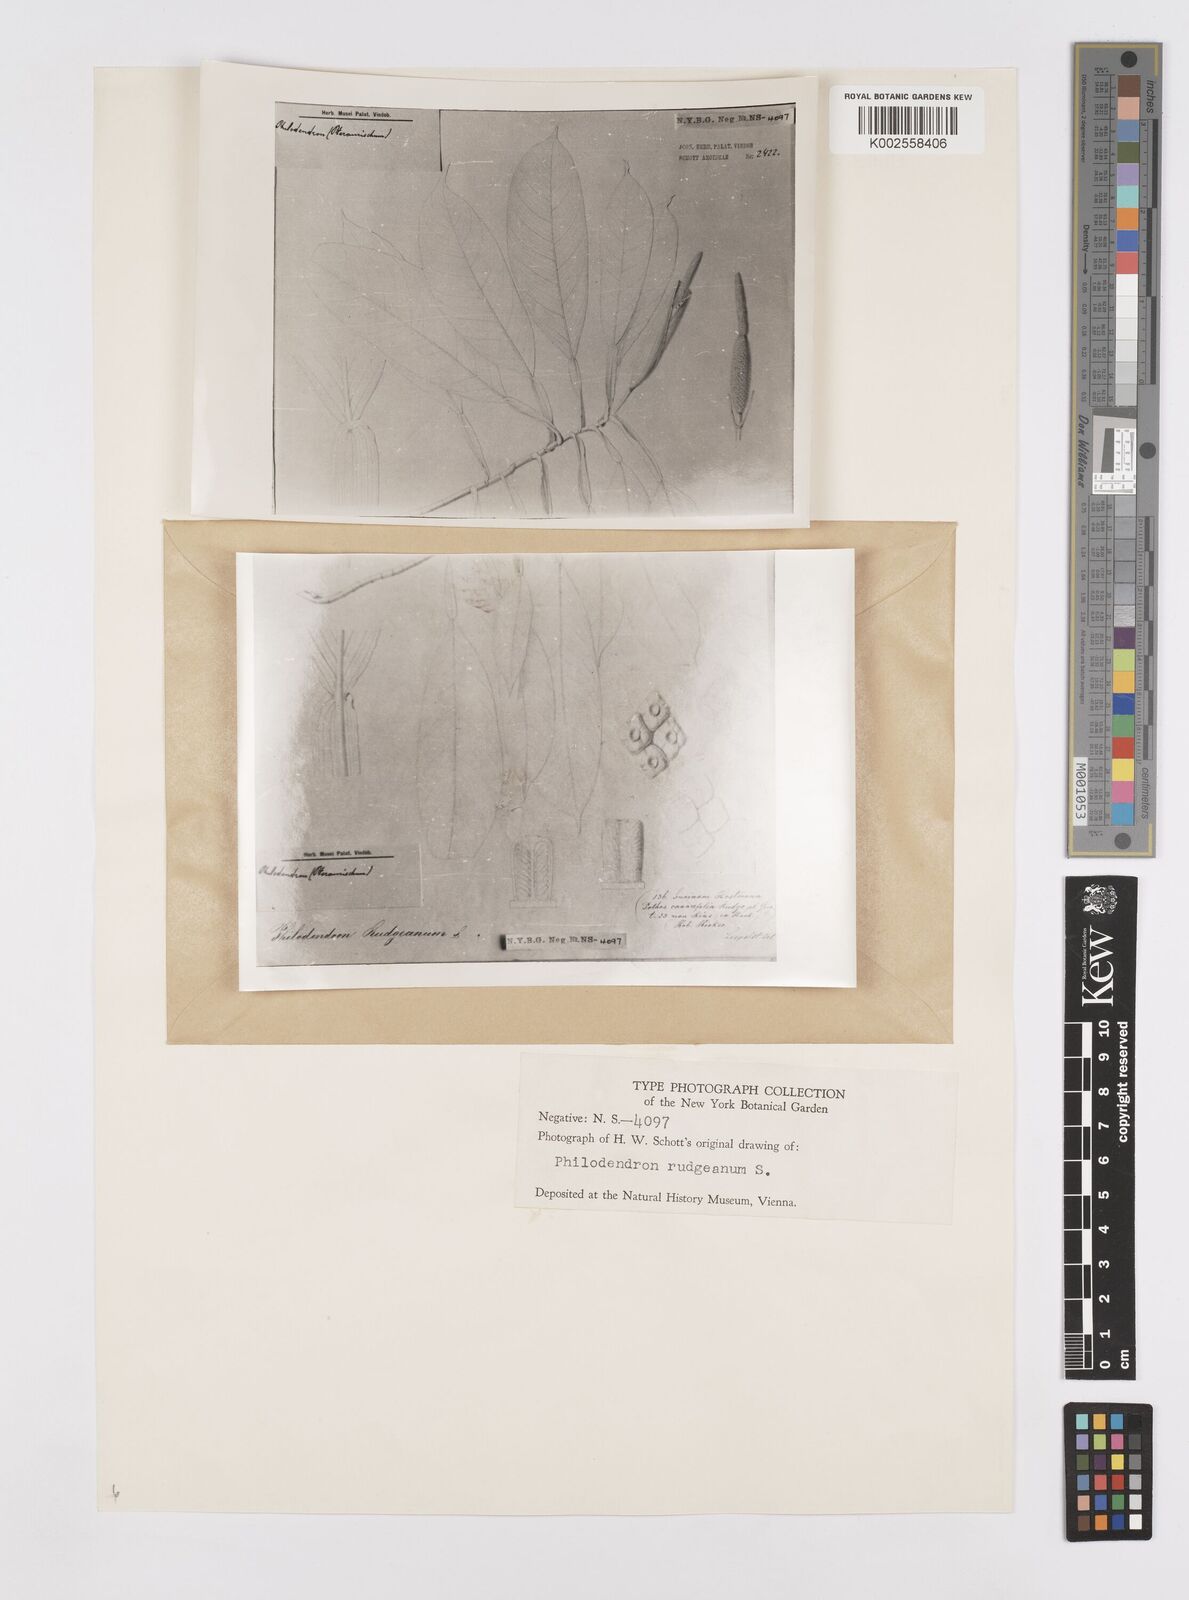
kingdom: Plantae
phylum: Tracheophyta
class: Liliopsida
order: Alismatales
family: Araceae
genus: Philodendron
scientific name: Philodendron rudgeanum
